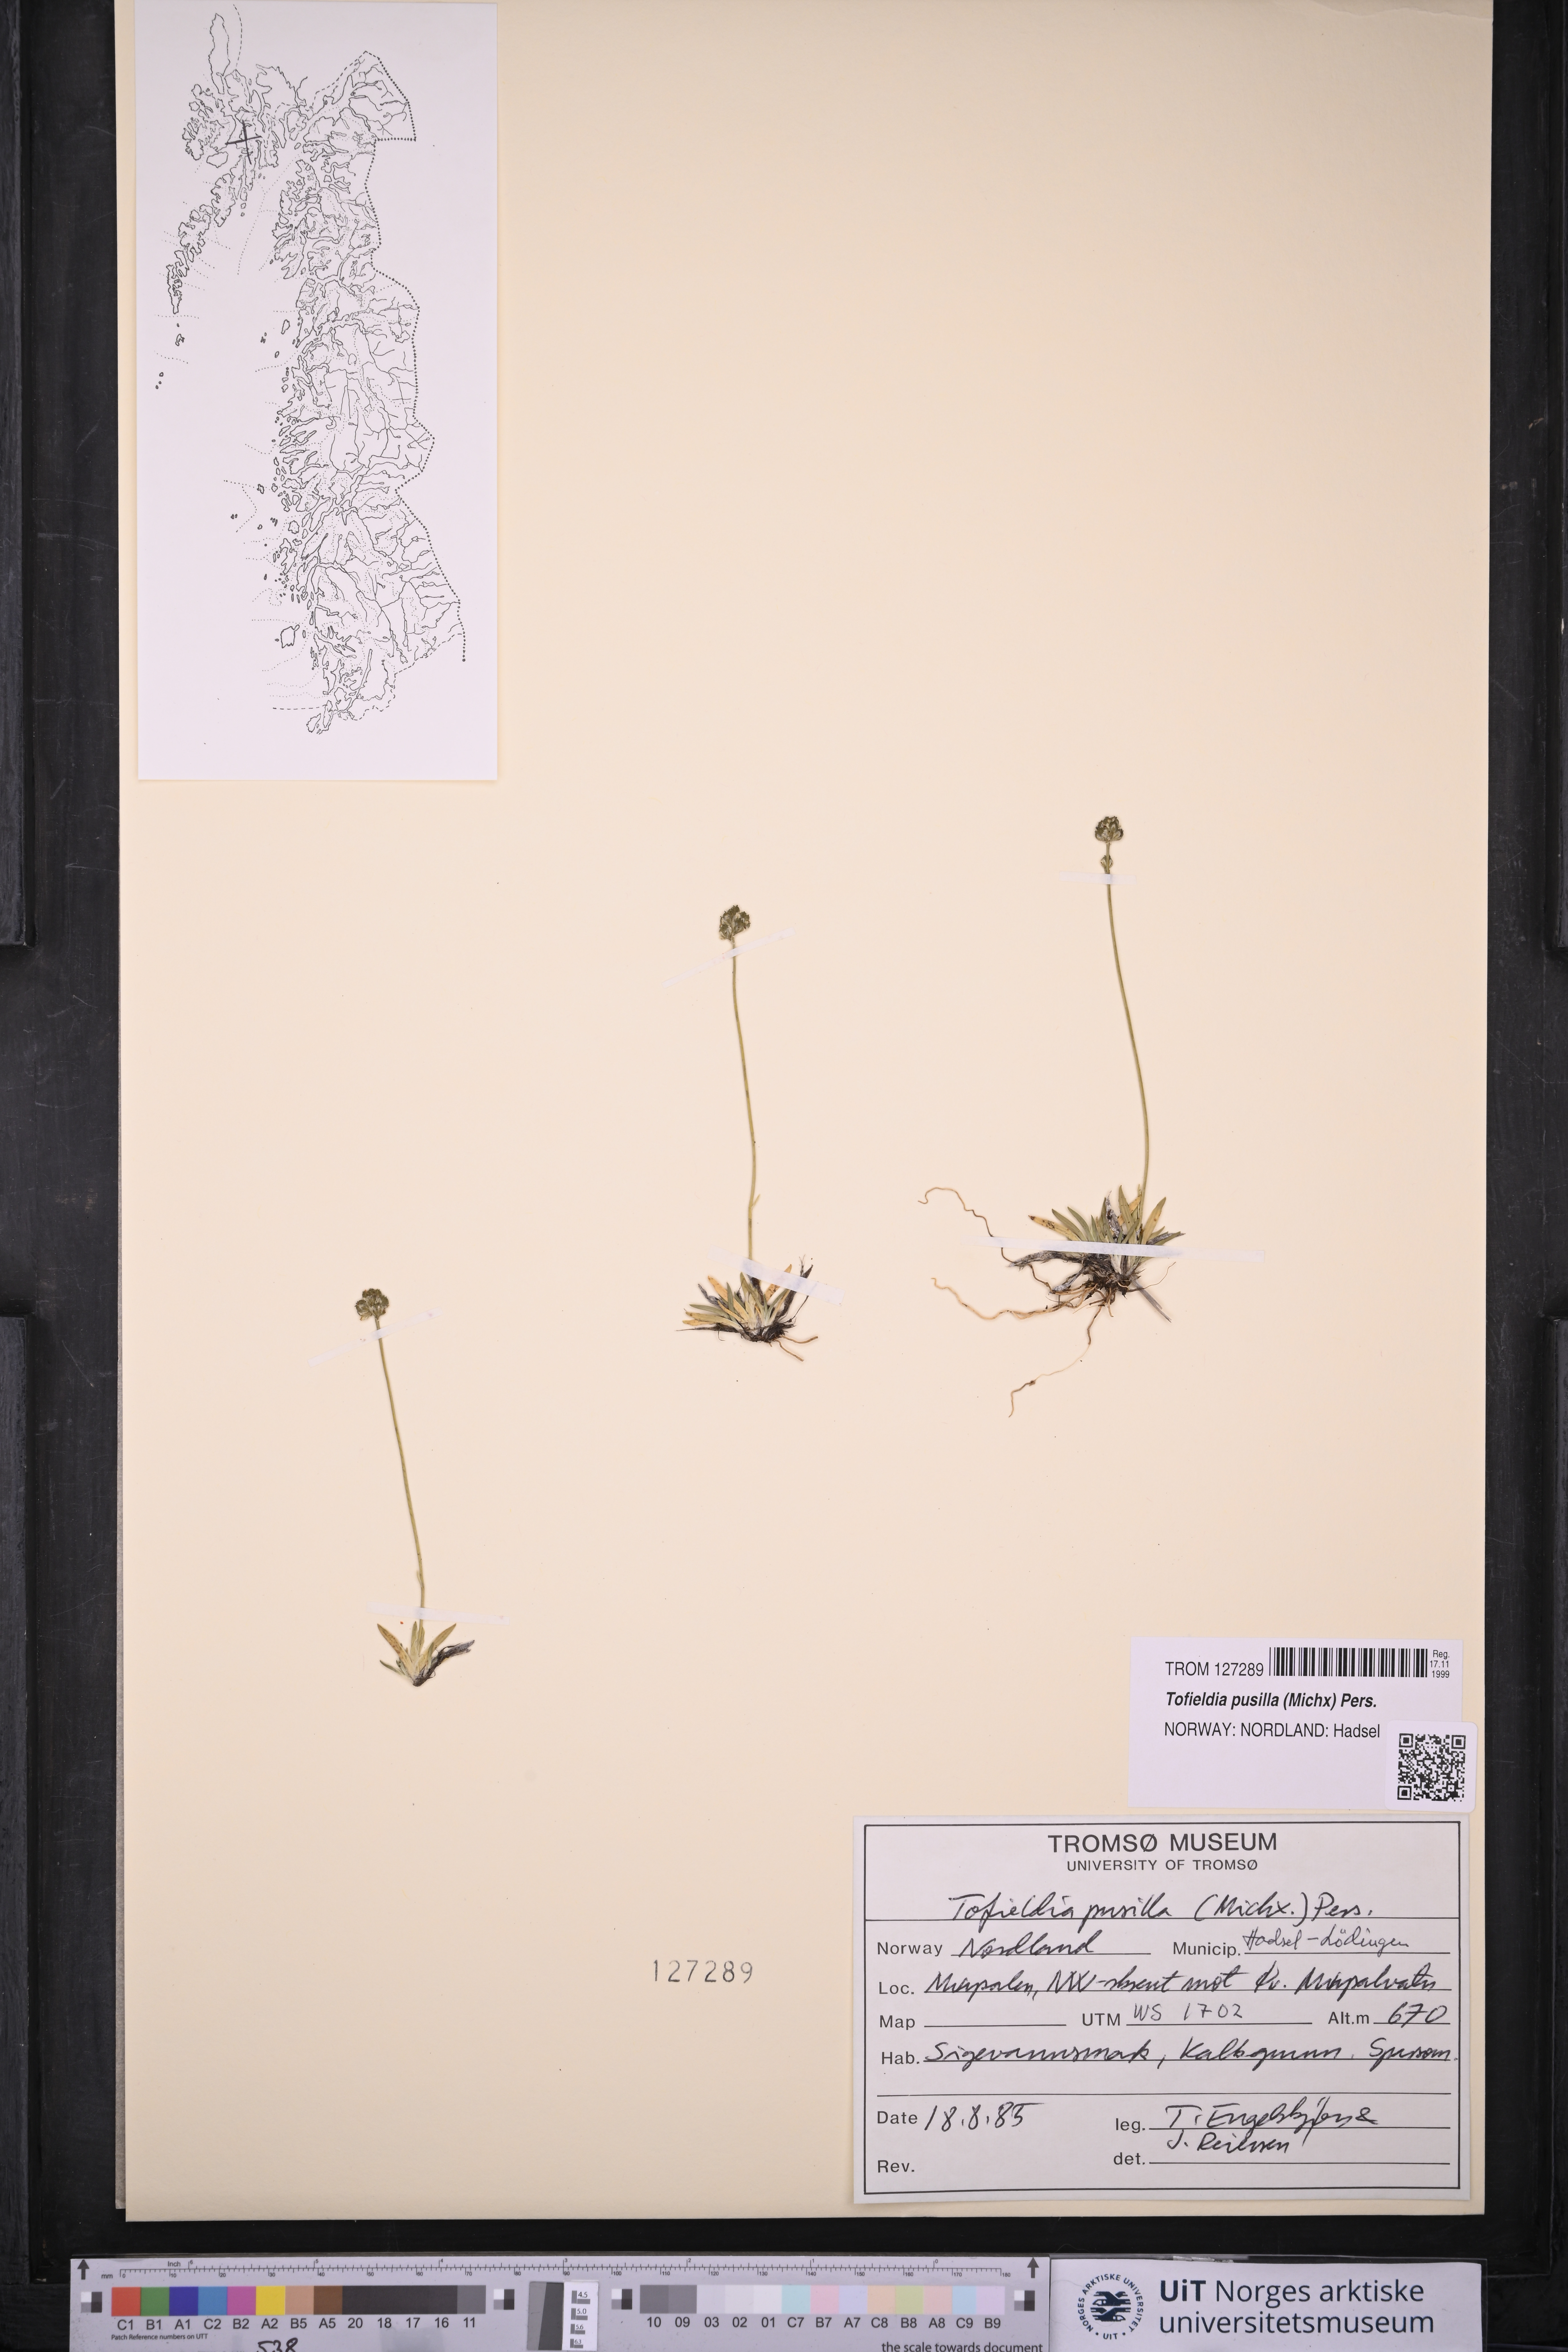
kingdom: Plantae
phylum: Tracheophyta
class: Liliopsida
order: Alismatales
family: Tofieldiaceae
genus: Tofieldia
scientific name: Tofieldia pusilla
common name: Scottish false asphodel
